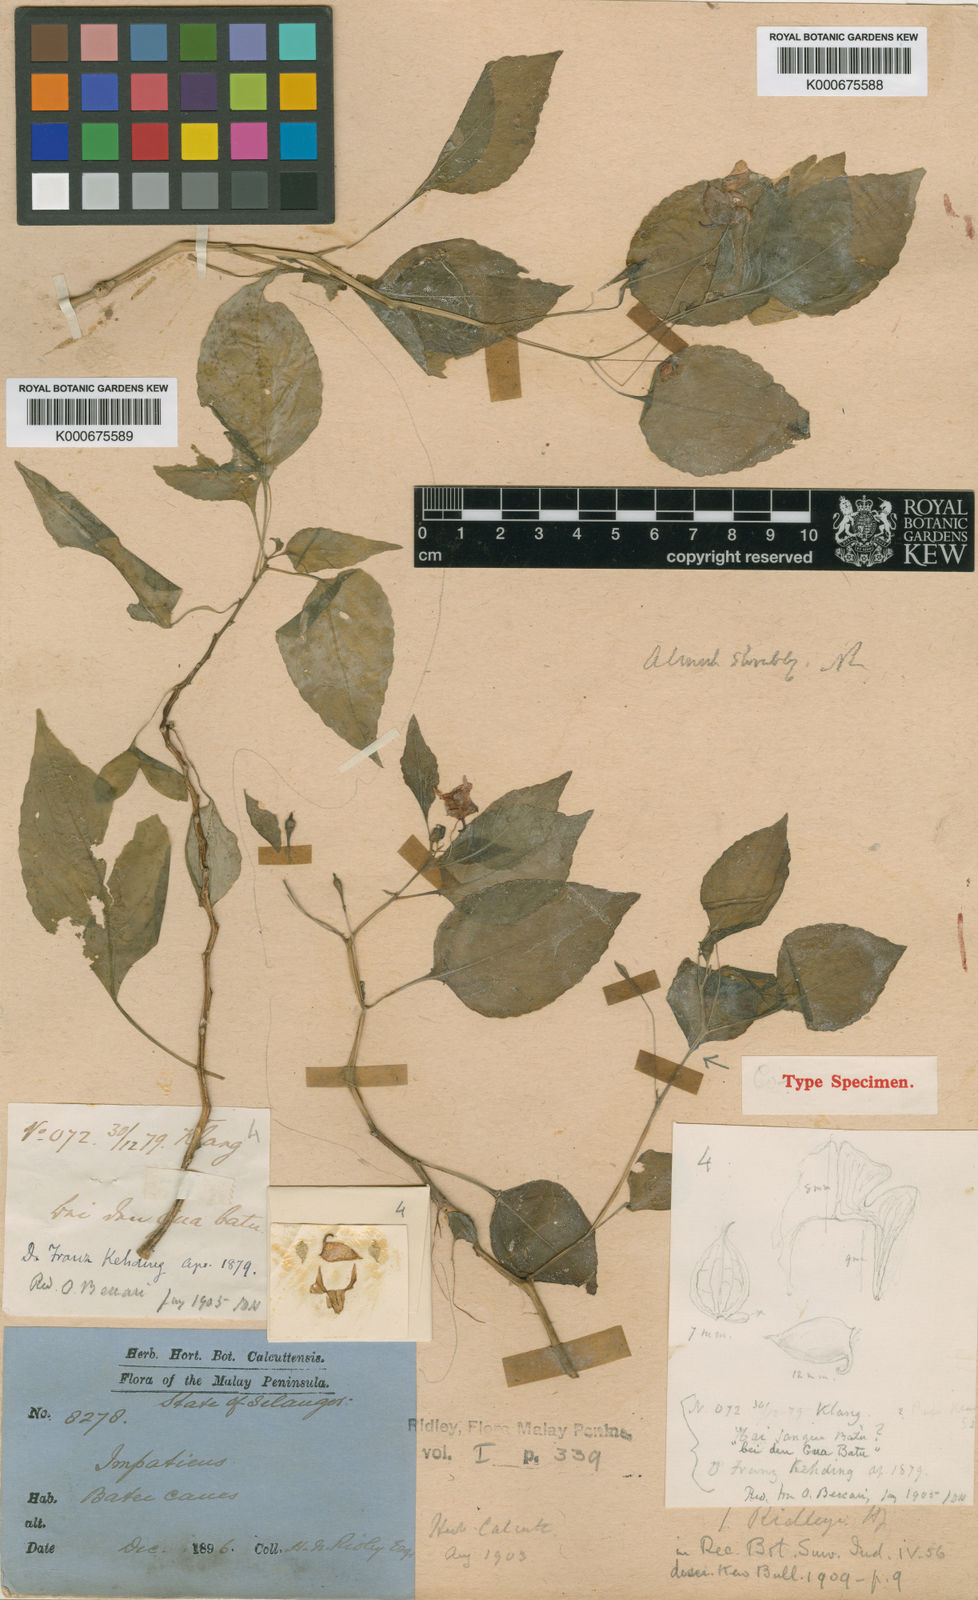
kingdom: Plantae
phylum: Tracheophyta
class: Magnoliopsida
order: Ericales
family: Balsaminaceae
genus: Impatiens
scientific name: Impatiens ridleyi
